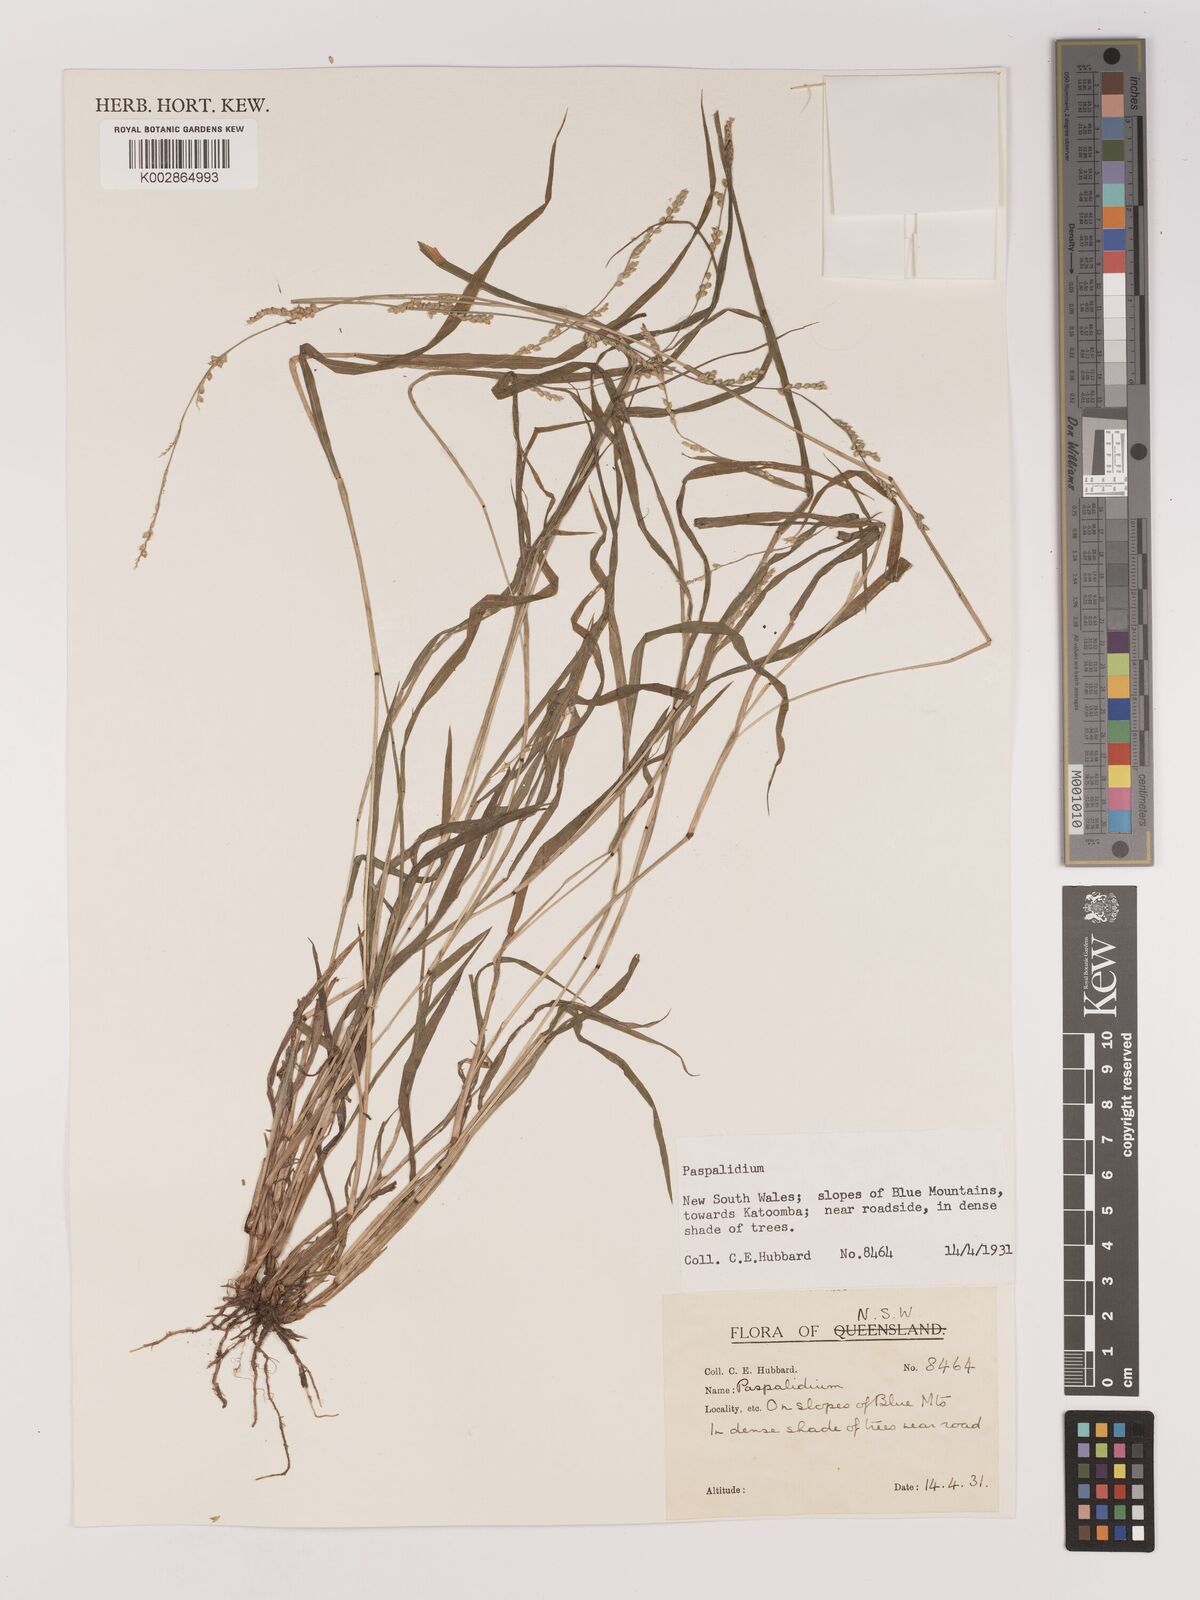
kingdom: Plantae
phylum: Tracheophyta
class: Liliopsida
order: Poales
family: Poaceae
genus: Setaria
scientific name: Setaria
